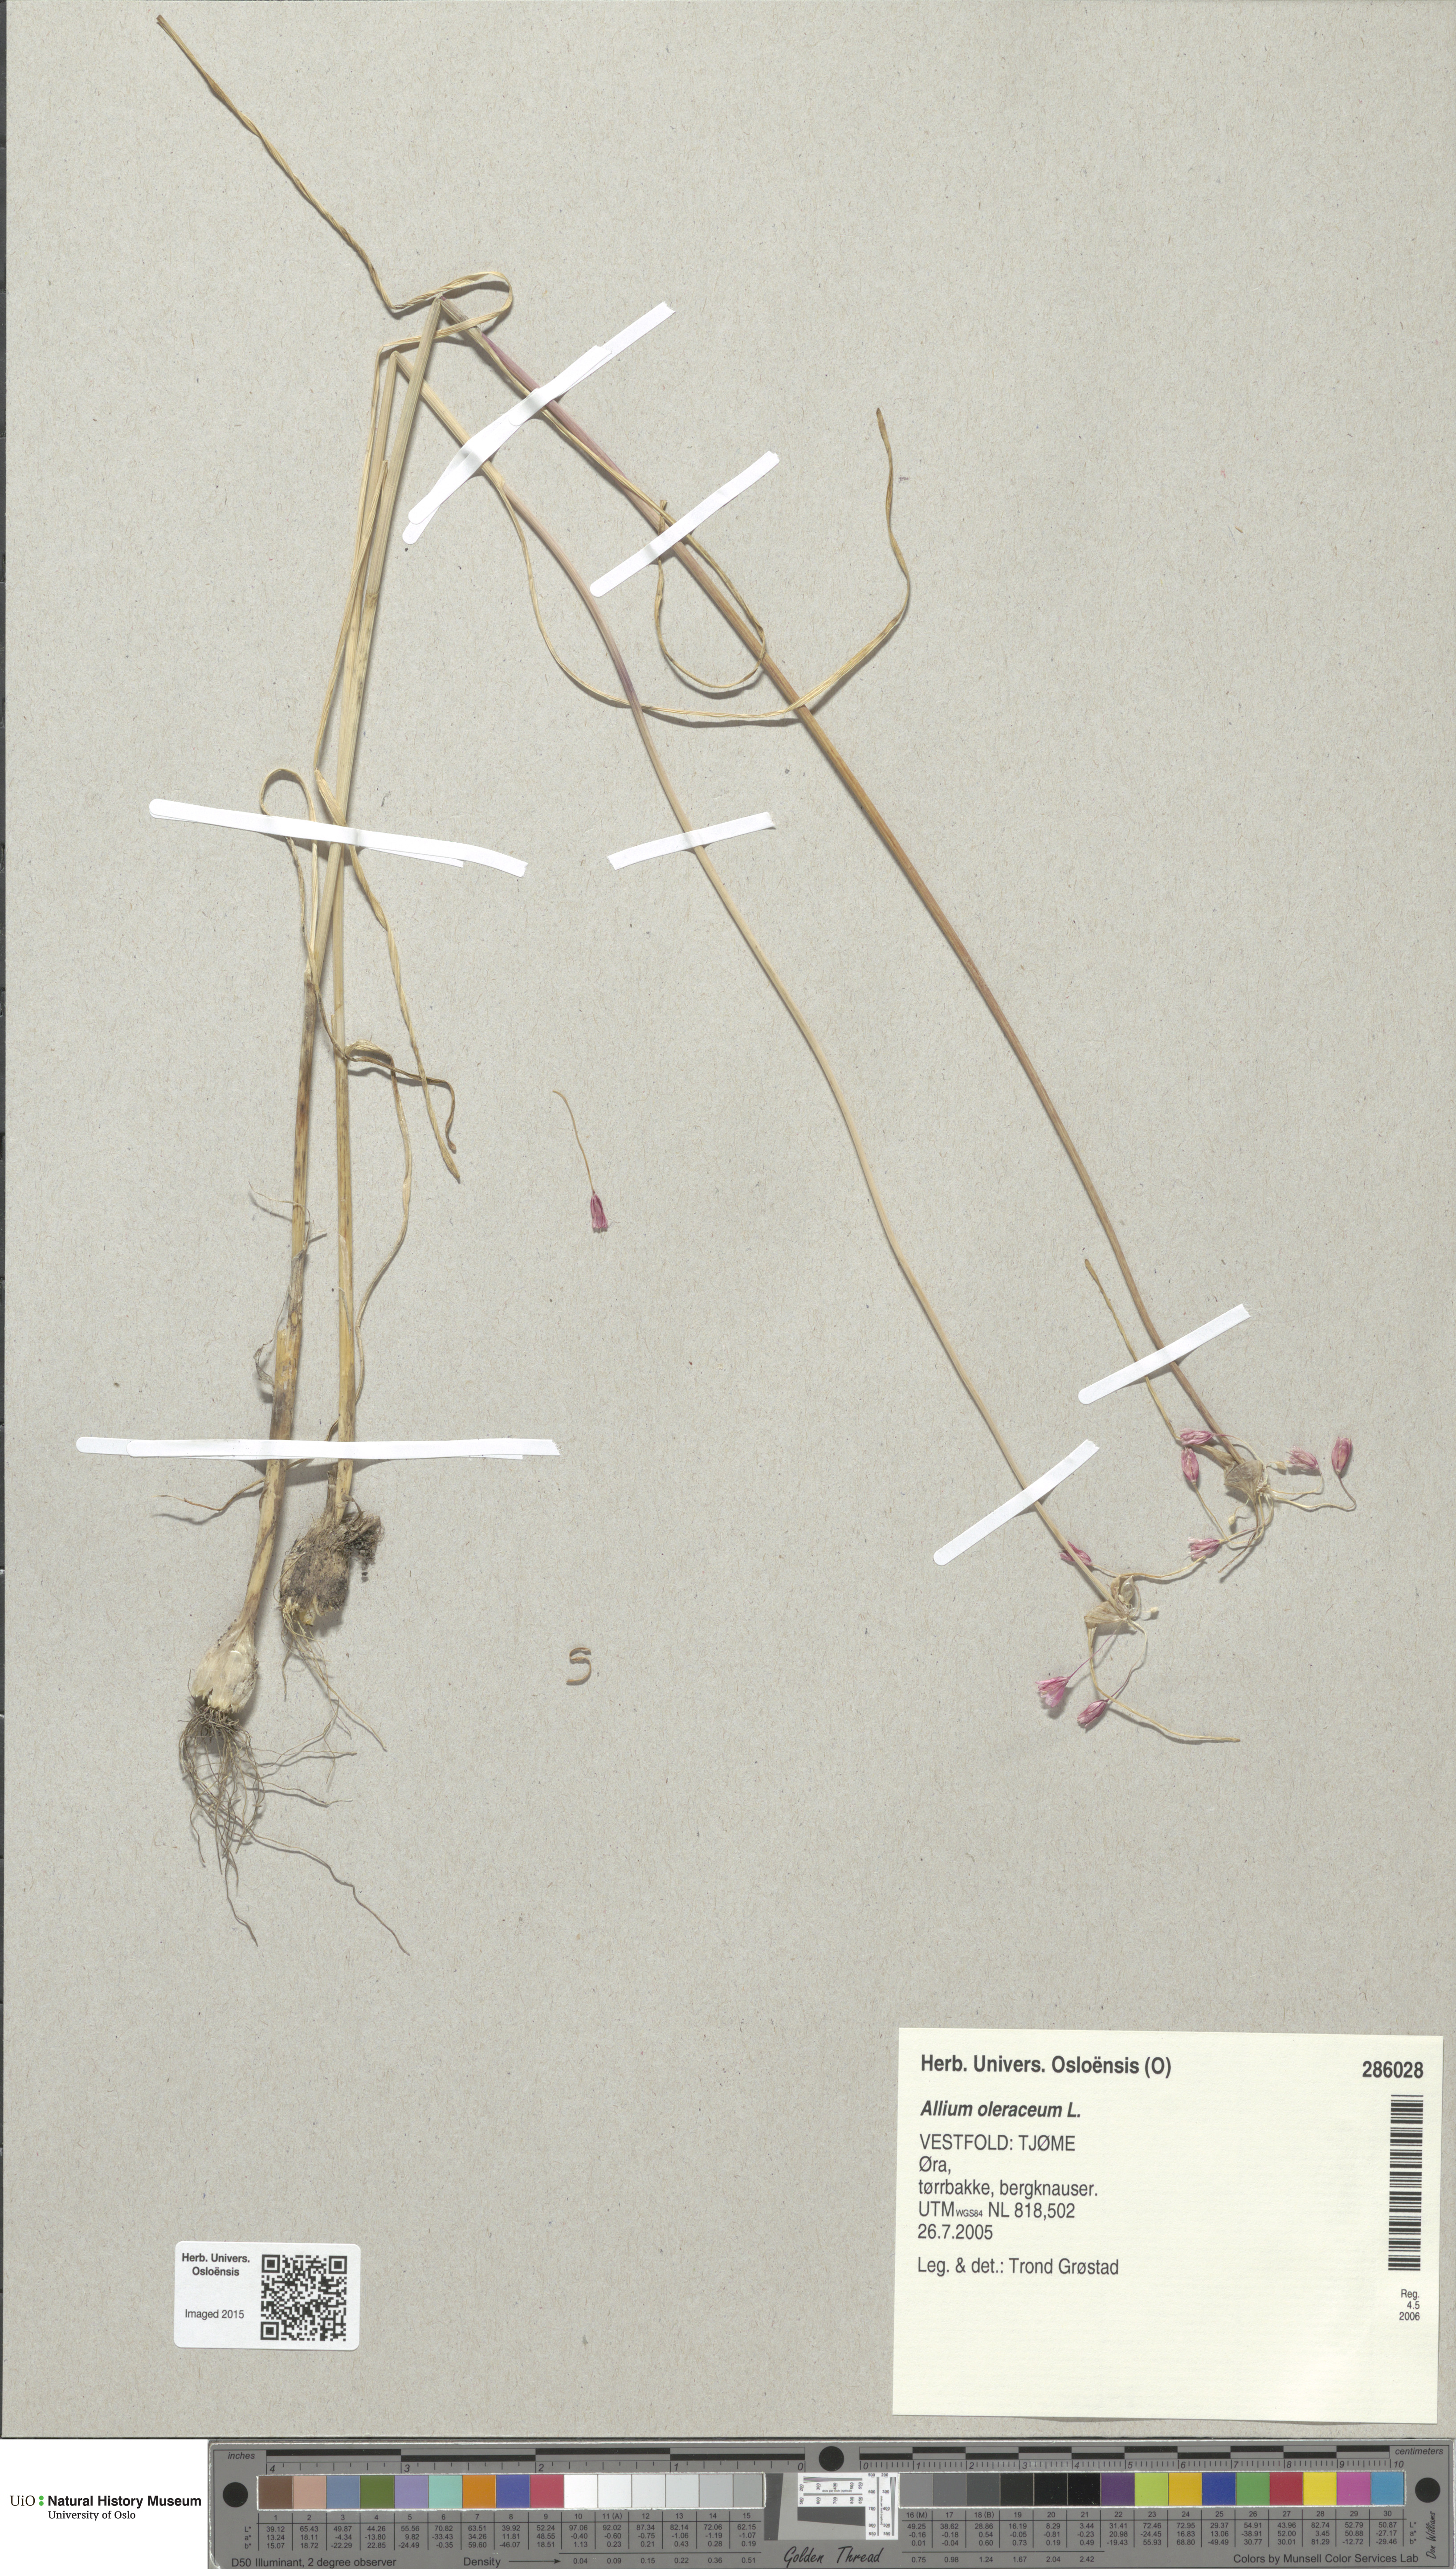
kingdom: Plantae
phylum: Tracheophyta
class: Liliopsida
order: Asparagales
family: Amaryllidaceae
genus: Allium
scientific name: Allium oleraceum
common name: Field garlic
